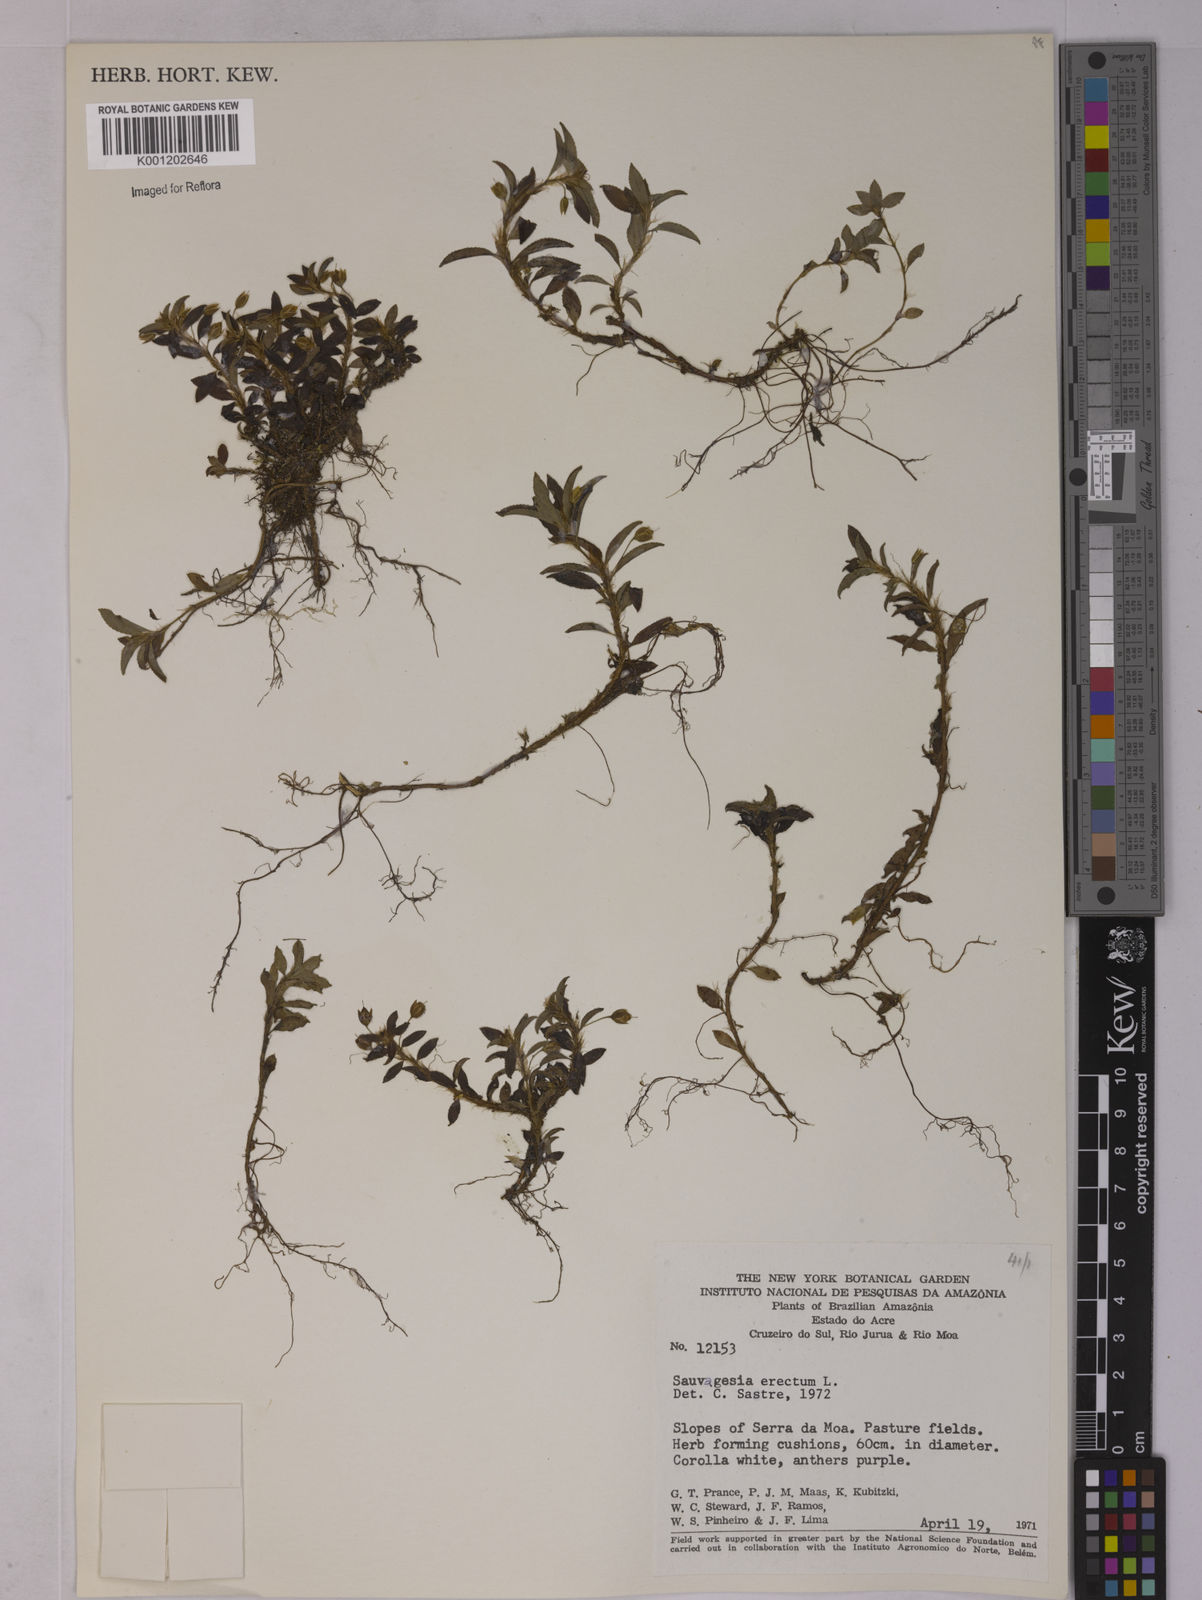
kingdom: Plantae
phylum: Tracheophyta
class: Magnoliopsida
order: Malpighiales
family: Ochnaceae
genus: Sauvagesia
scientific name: Sauvagesia erecta
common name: Creole tea
